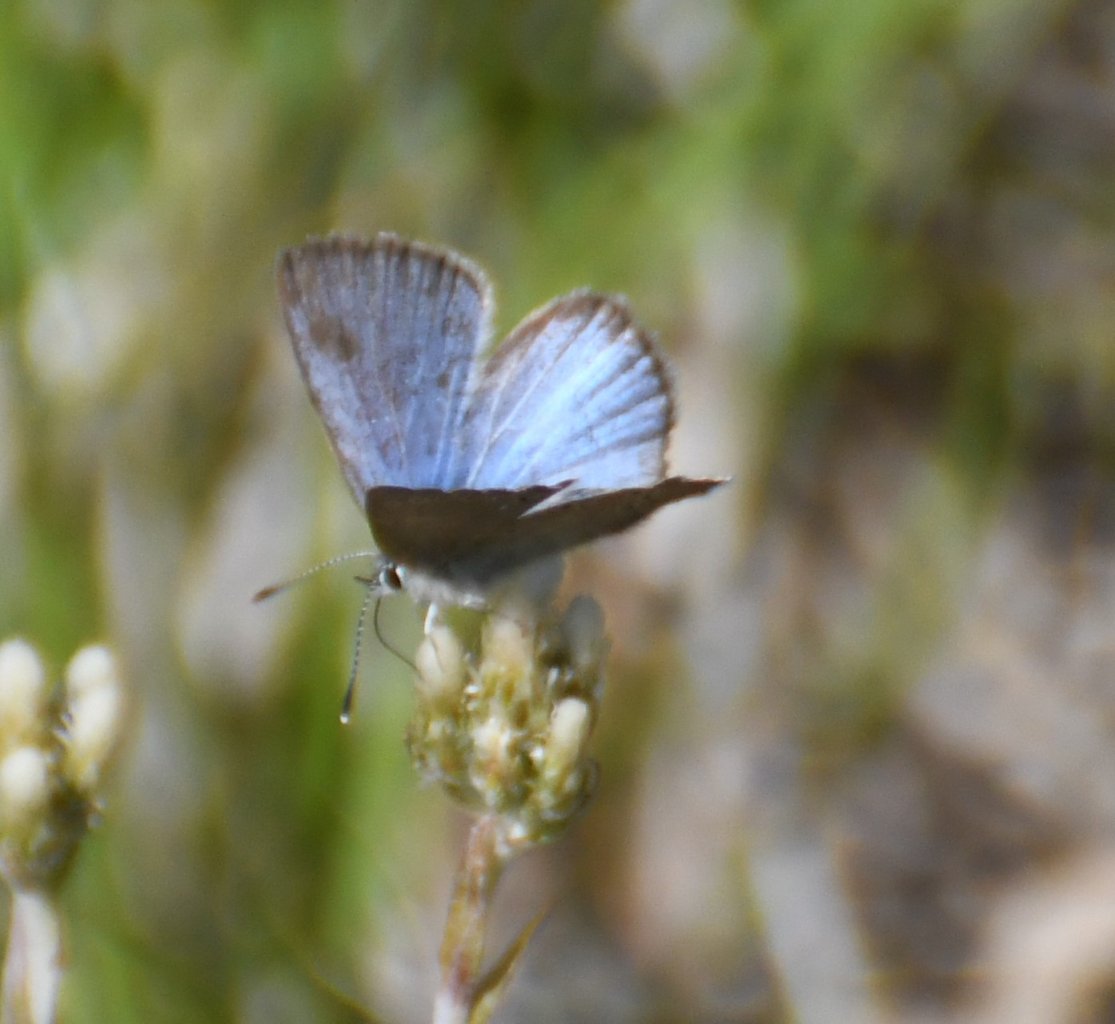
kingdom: Animalia
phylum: Arthropoda
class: Insecta
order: Lepidoptera
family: Lycaenidae
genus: Glaucopsyche
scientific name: Glaucopsyche lygdamus
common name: Silvery Blue
